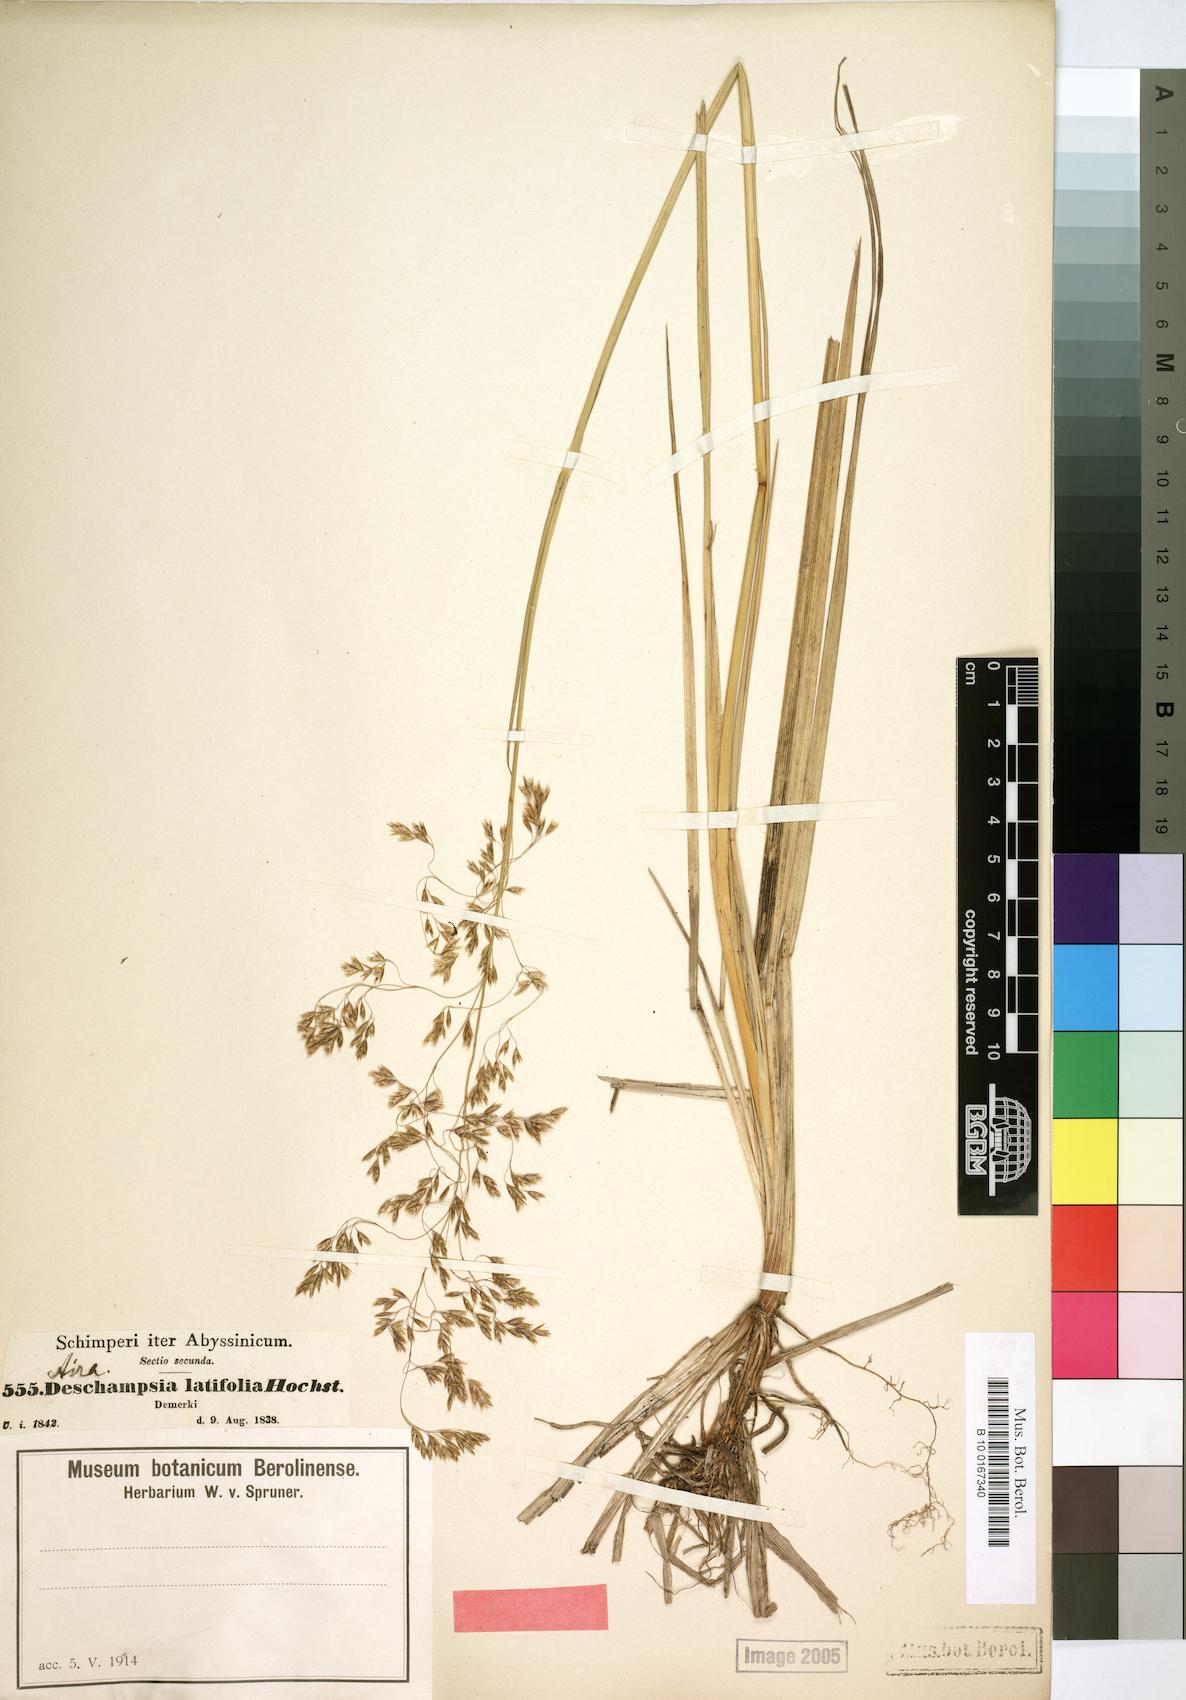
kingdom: Plantae
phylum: Tracheophyta
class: Liliopsida
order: Poales
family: Poaceae
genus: Deschampsia
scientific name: Deschampsia cespitosa
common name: Tufted hair-grass
